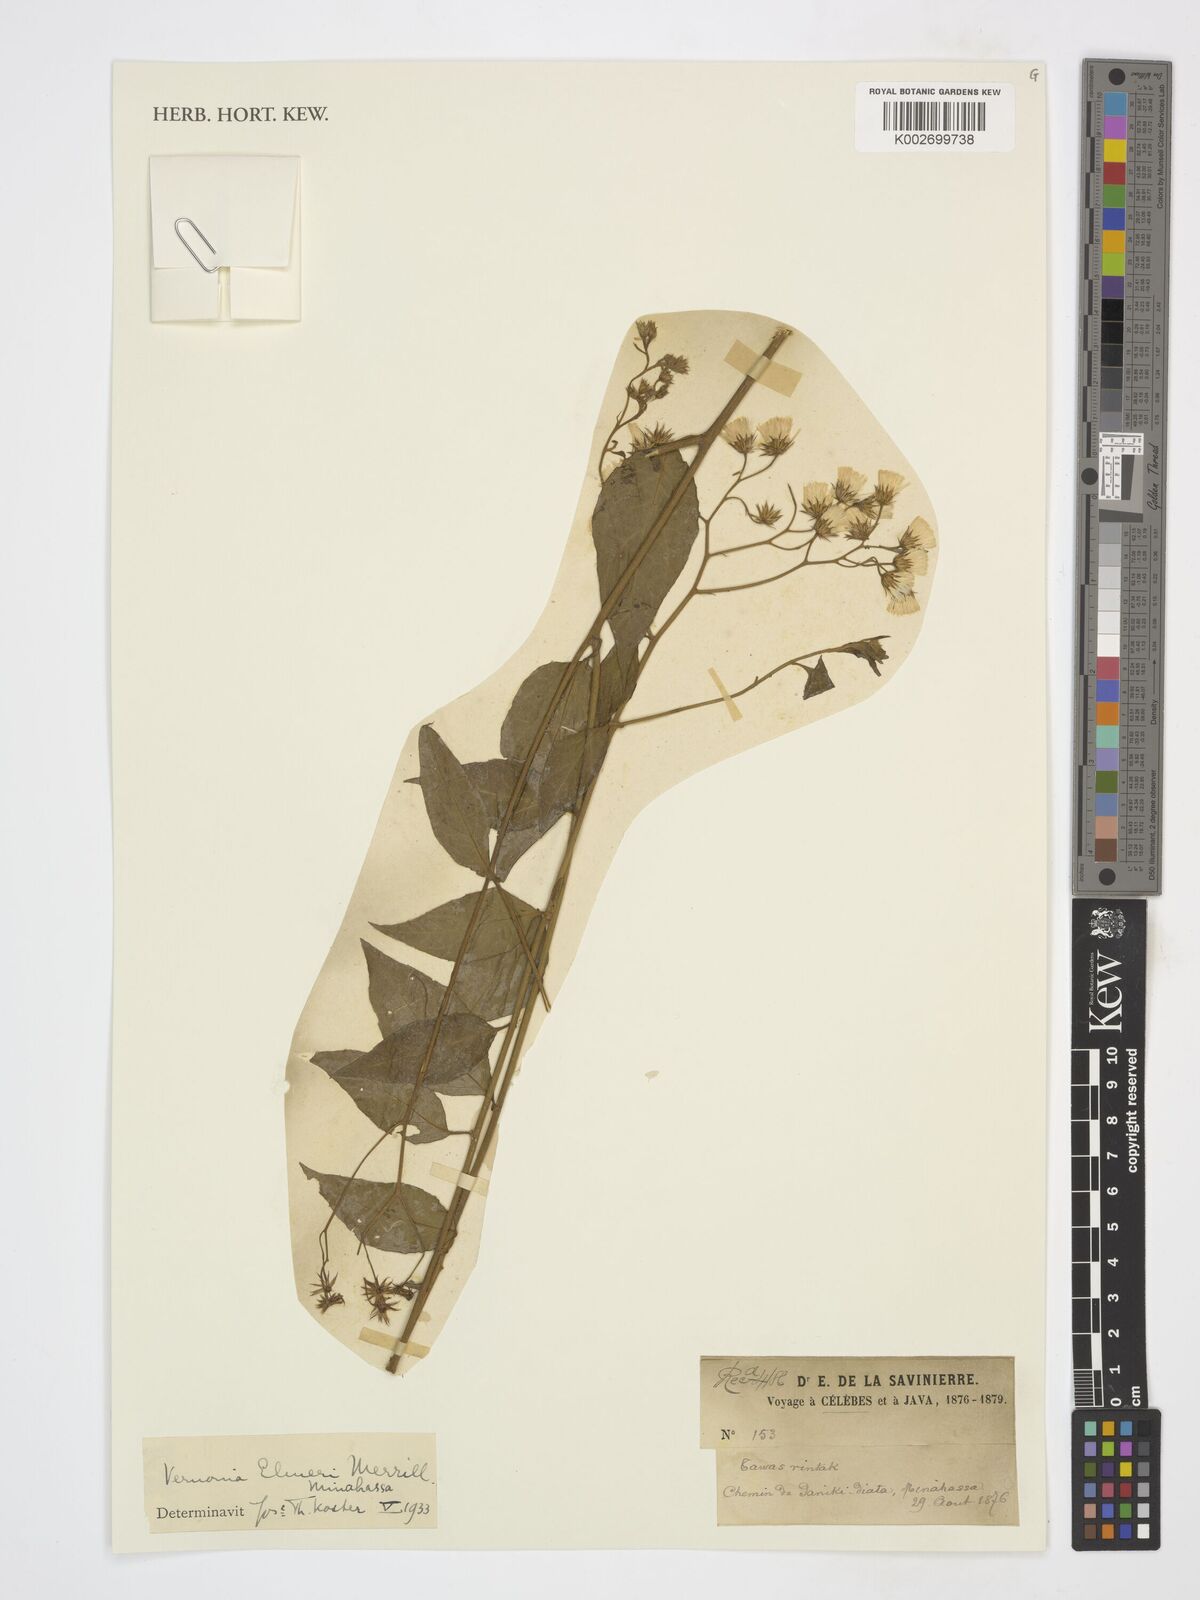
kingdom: Plantae
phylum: Tracheophyta
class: Magnoliopsida
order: Asterales
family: Asteraceae
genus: Vernonia
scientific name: Vernonia elmeri
